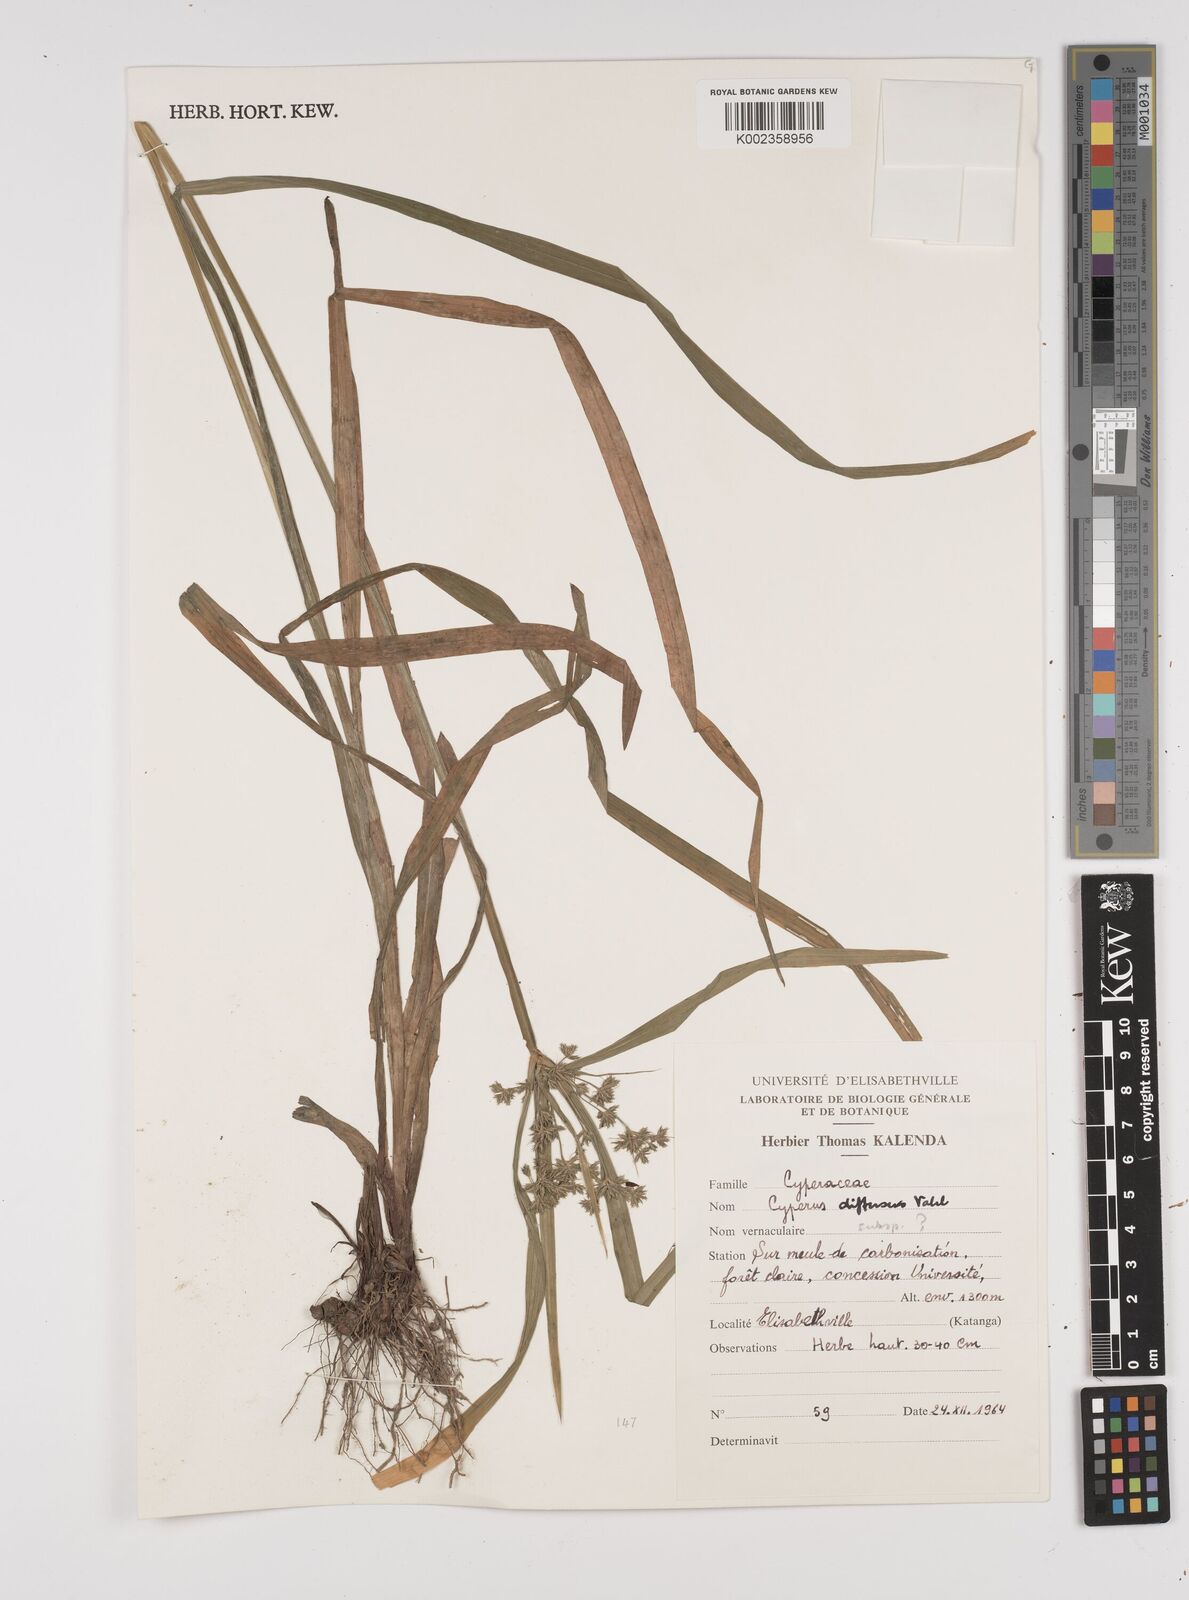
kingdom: Plantae
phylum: Tracheophyta
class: Liliopsida
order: Poales
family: Cyperaceae
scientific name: Cyperaceae
